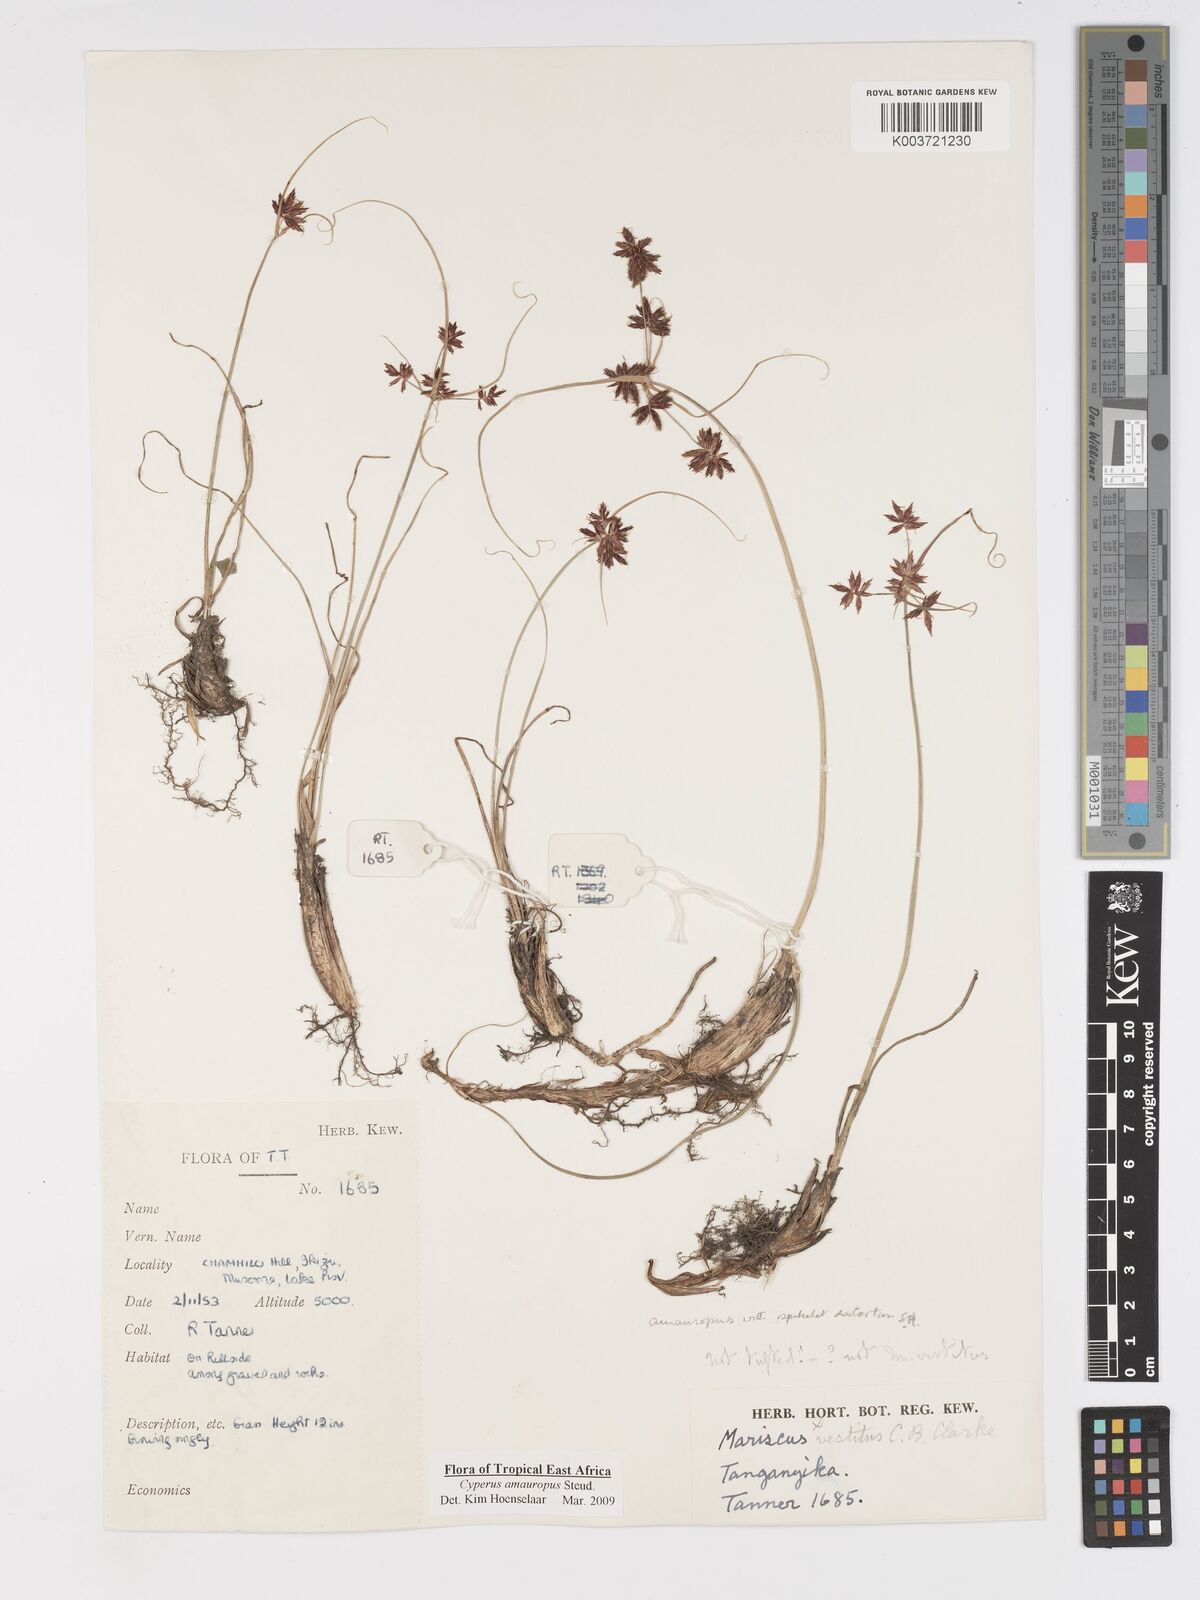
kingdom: Plantae
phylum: Tracheophyta
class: Liliopsida
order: Poales
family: Cyperaceae
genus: Cyperus
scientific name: Cyperus amauropus
